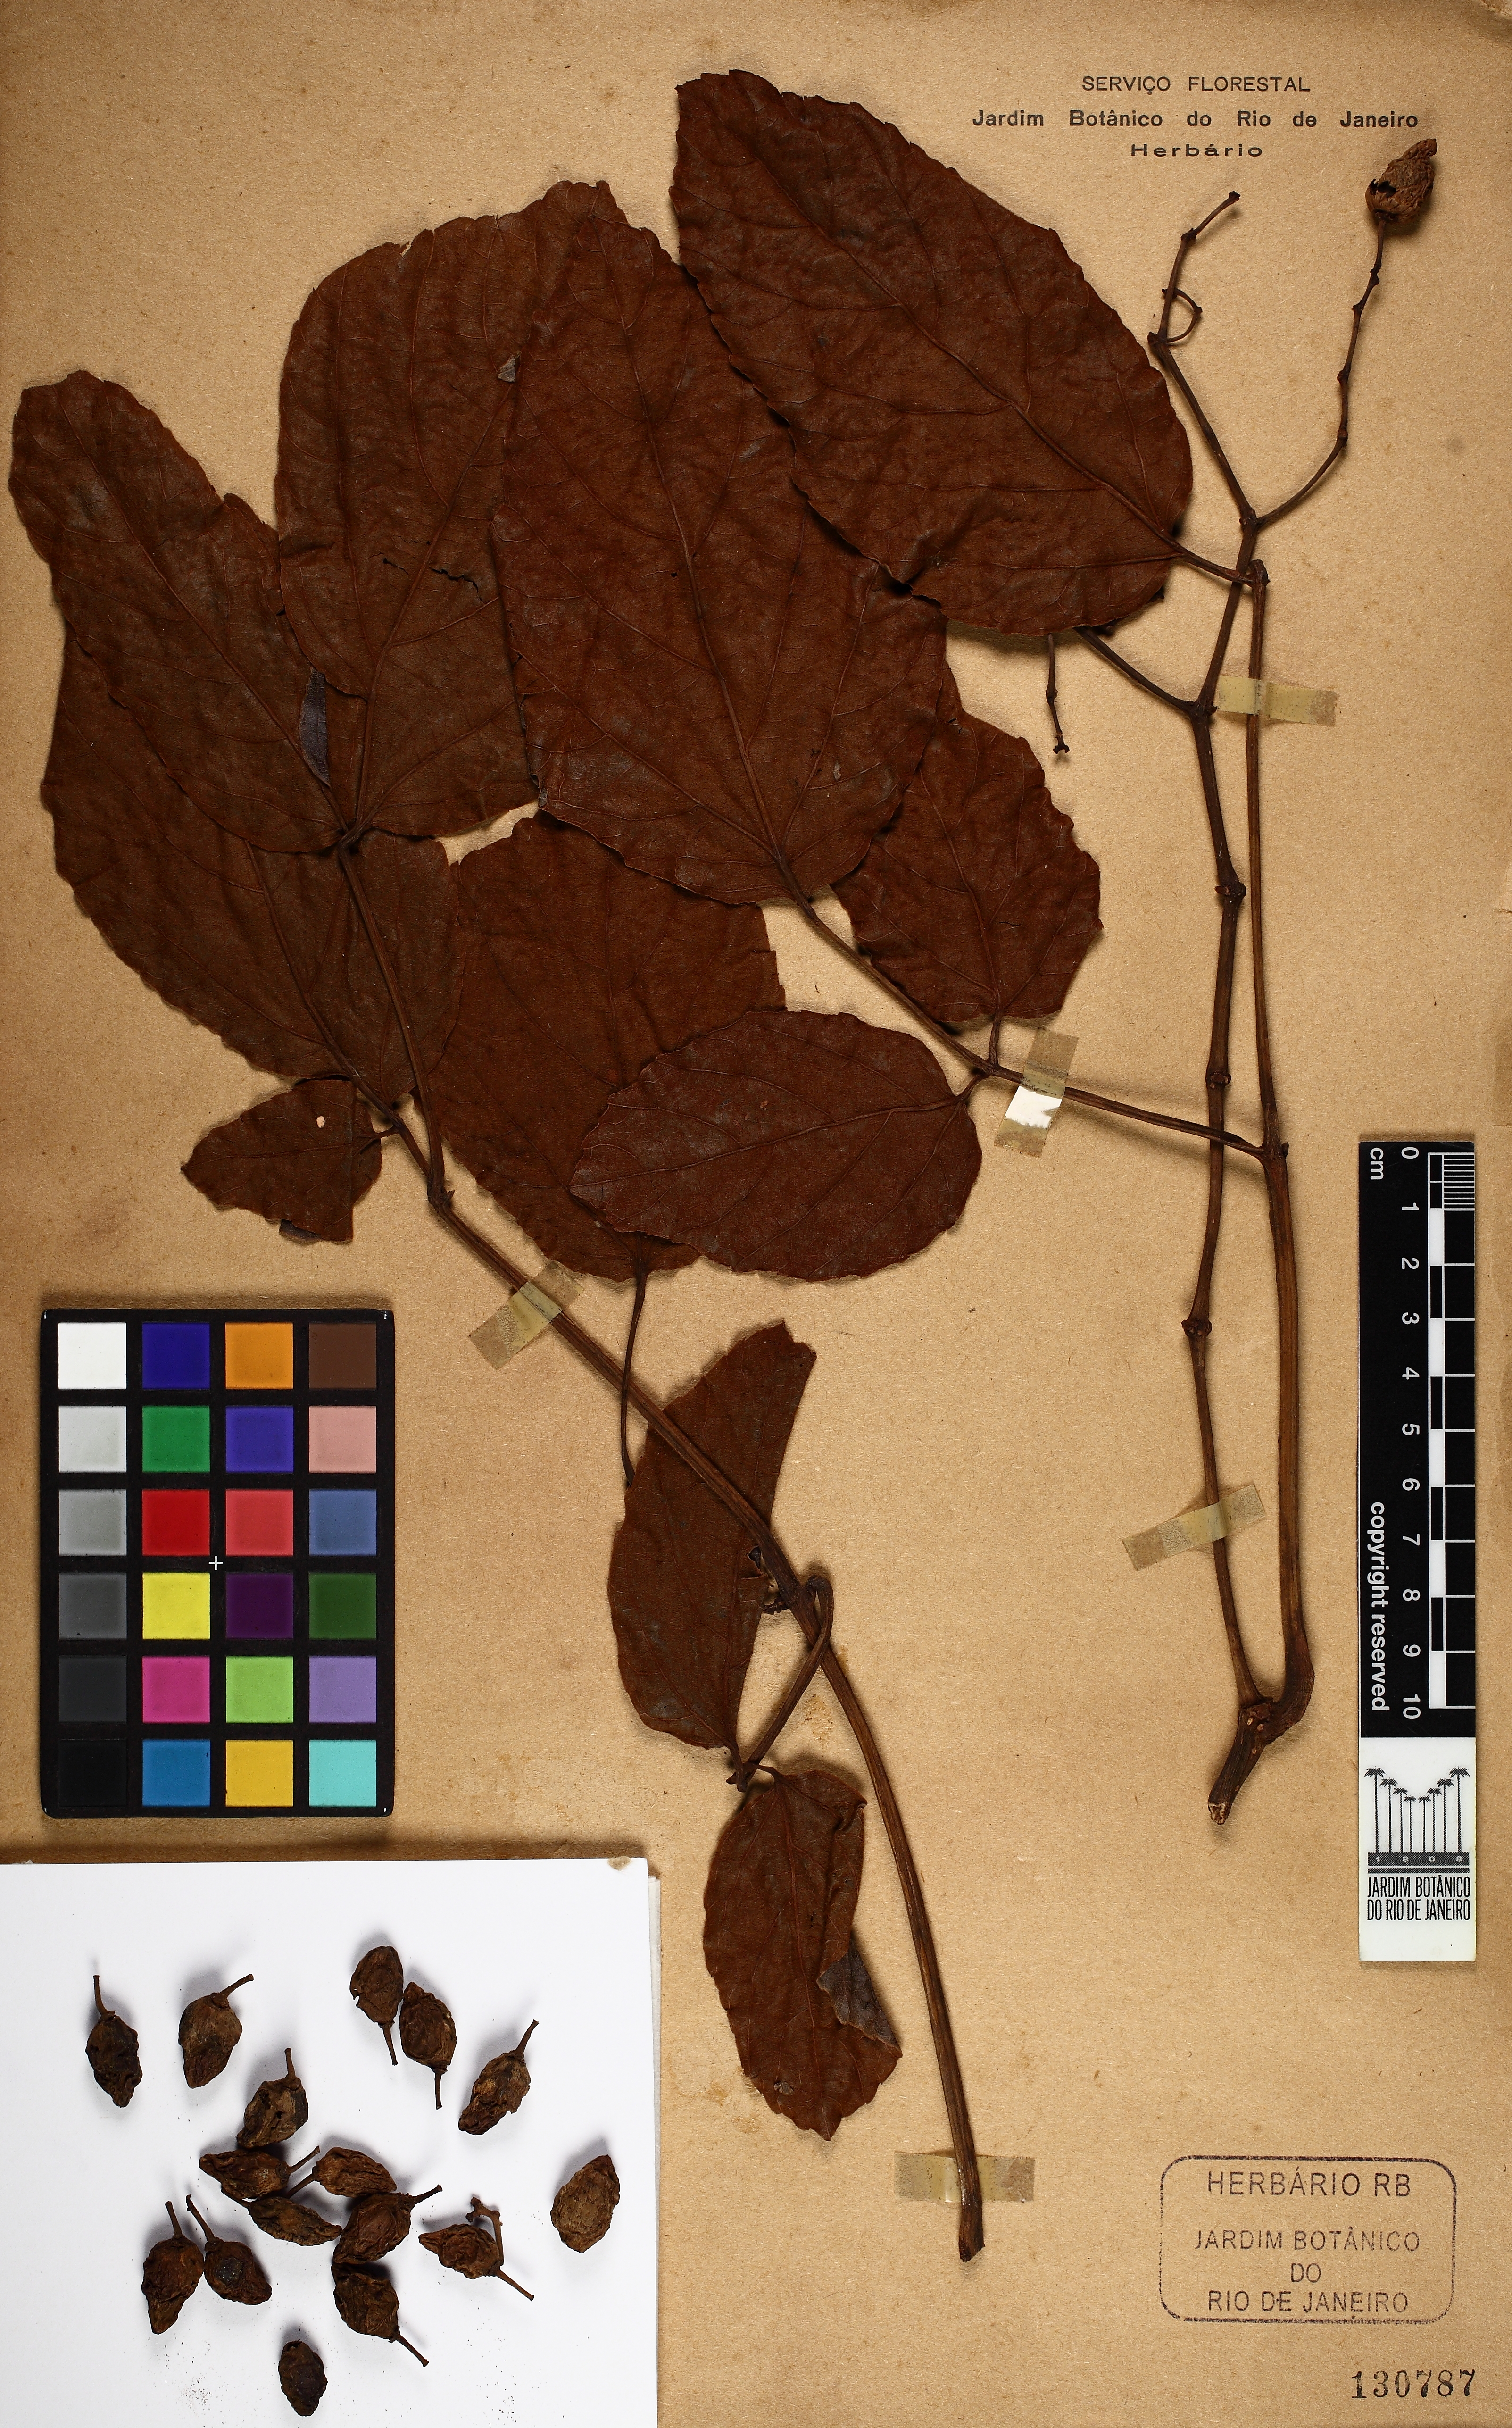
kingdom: Plantae
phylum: Tracheophyta
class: Magnoliopsida
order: Vitales
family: Vitaceae
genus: Cissus
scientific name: Cissus blanchetiana
